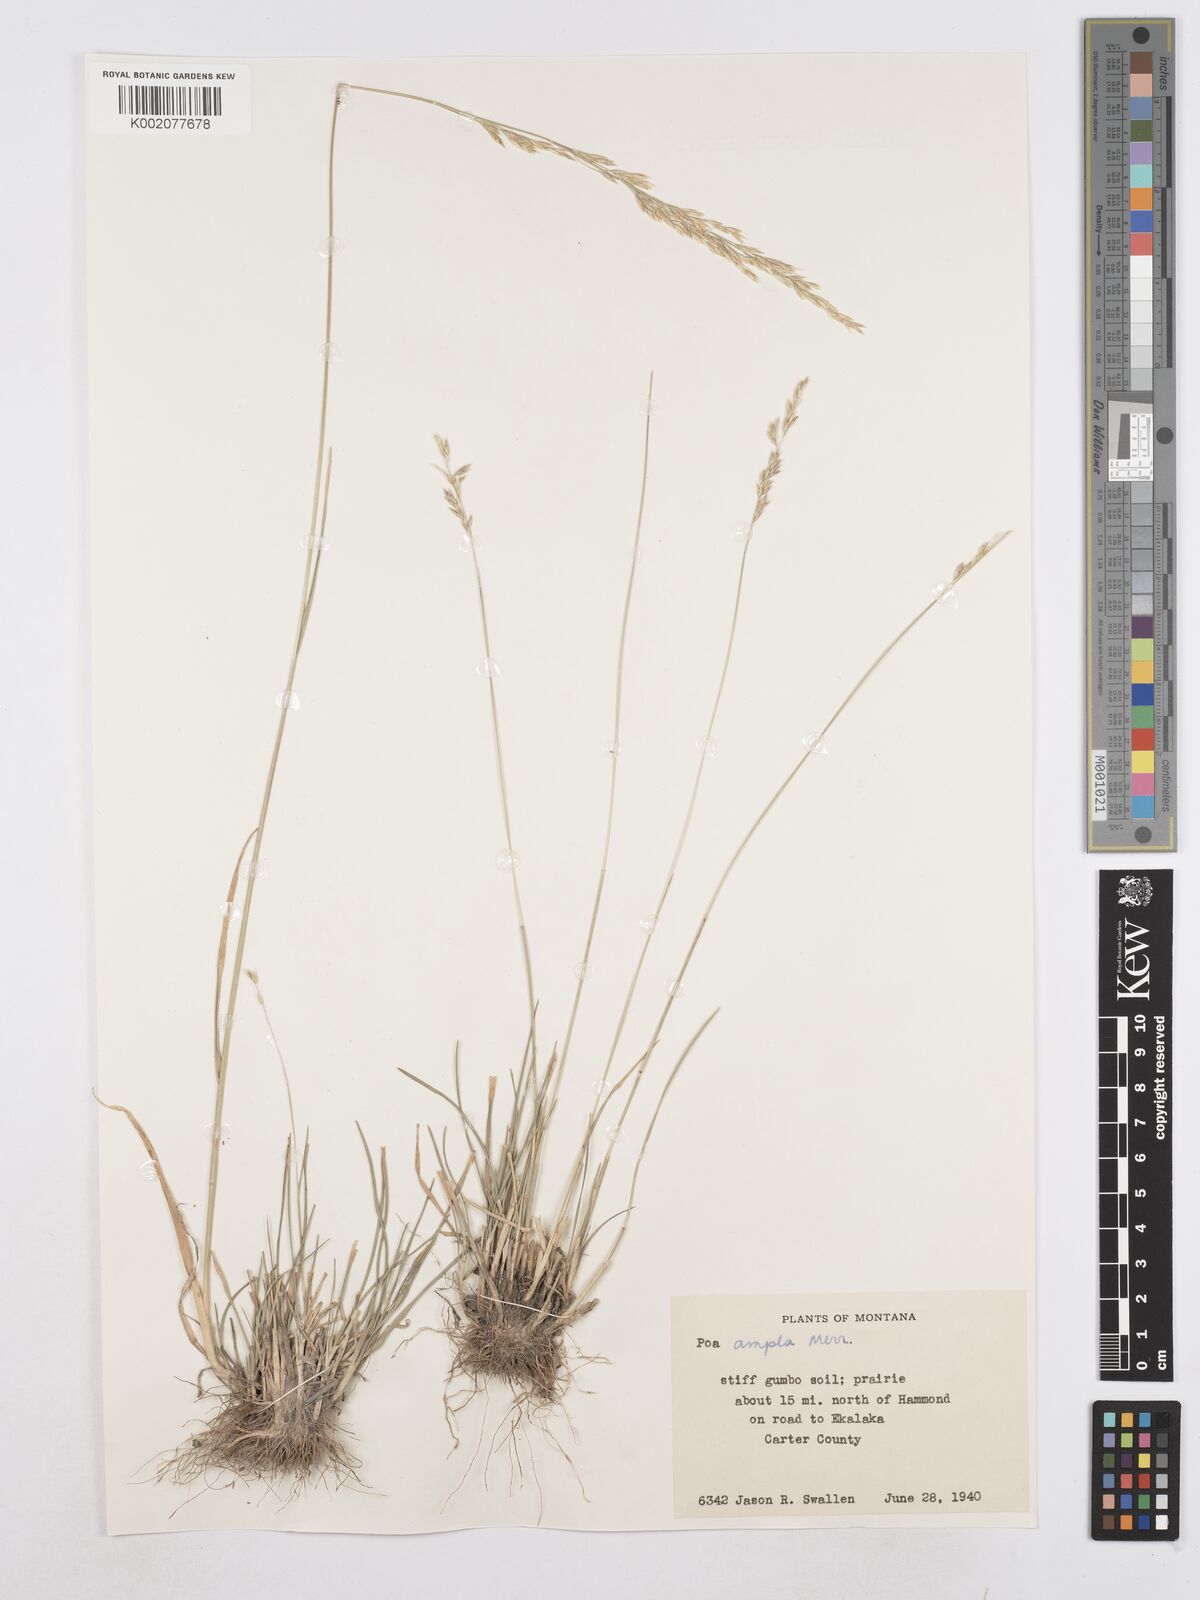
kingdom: Plantae
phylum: Tracheophyta
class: Liliopsida
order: Poales
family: Poaceae
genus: Poa
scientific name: Poa secunda
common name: Sandberg bluegrass
